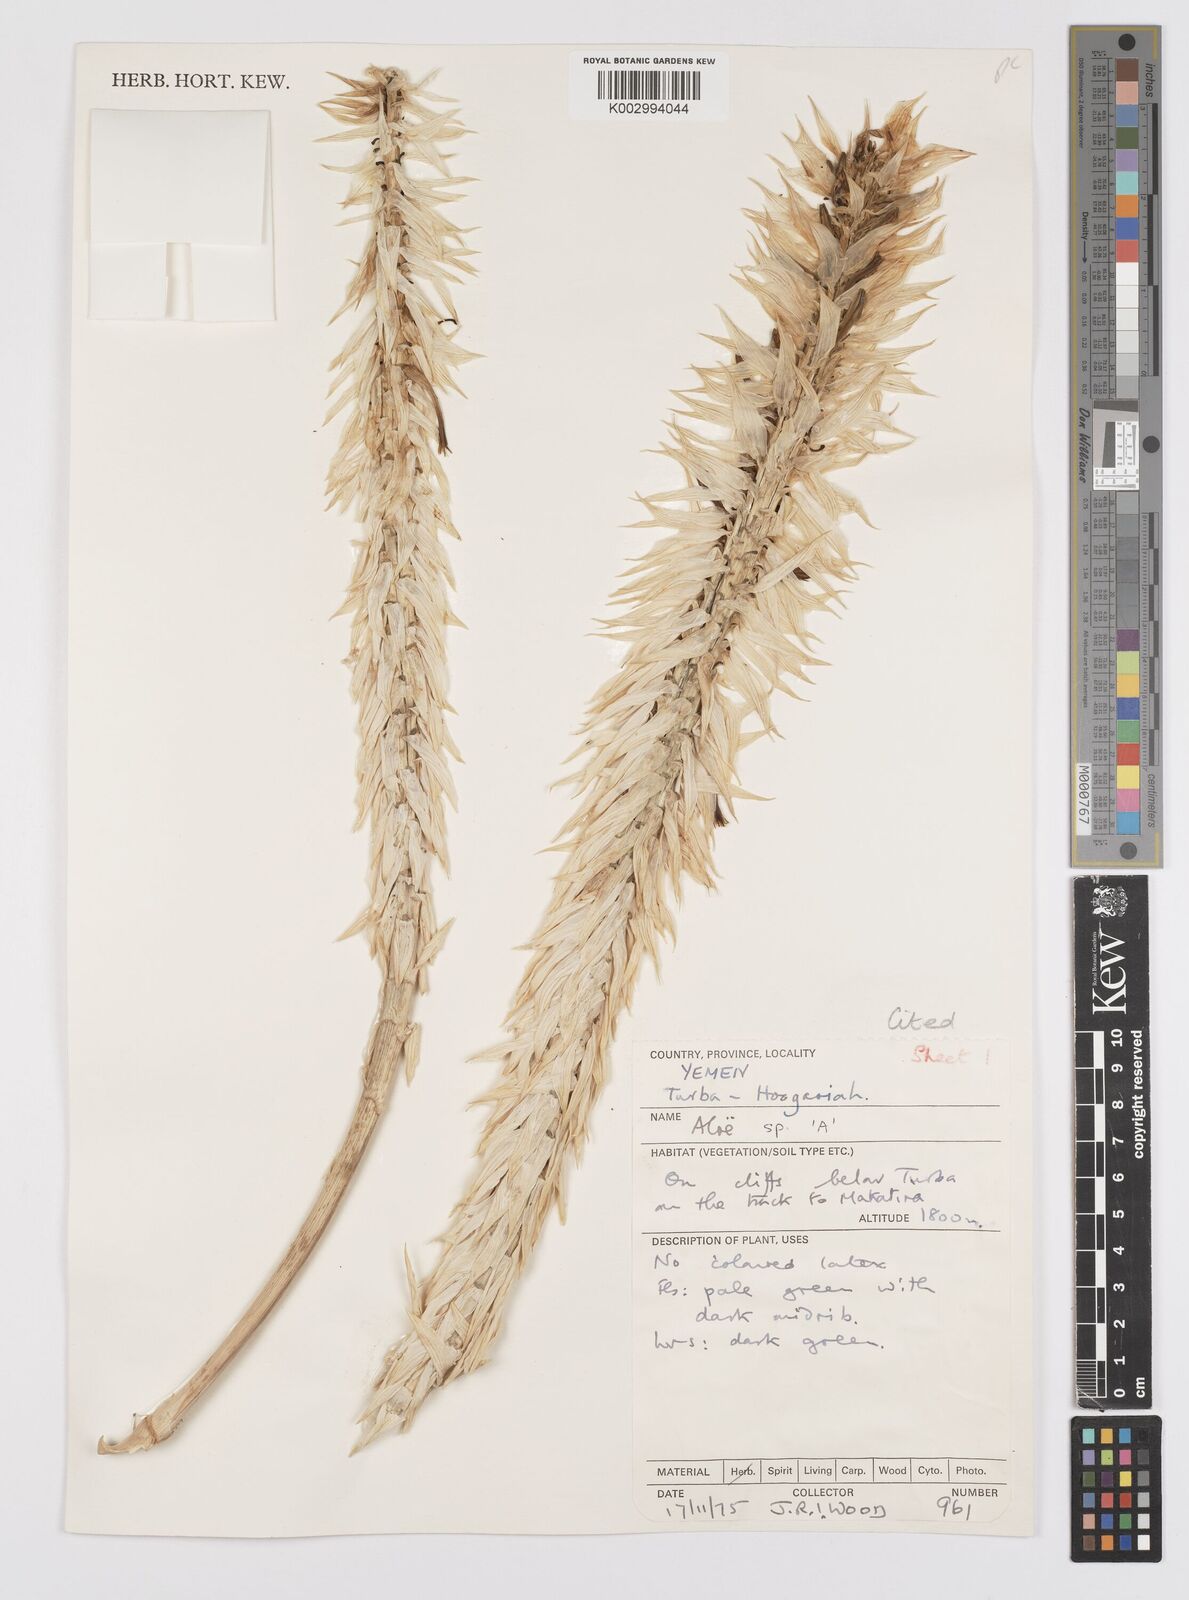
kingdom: Plantae
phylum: Tracheophyta
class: Liliopsida
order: Asparagales
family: Asphodelaceae
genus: Aloe
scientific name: Aloe
